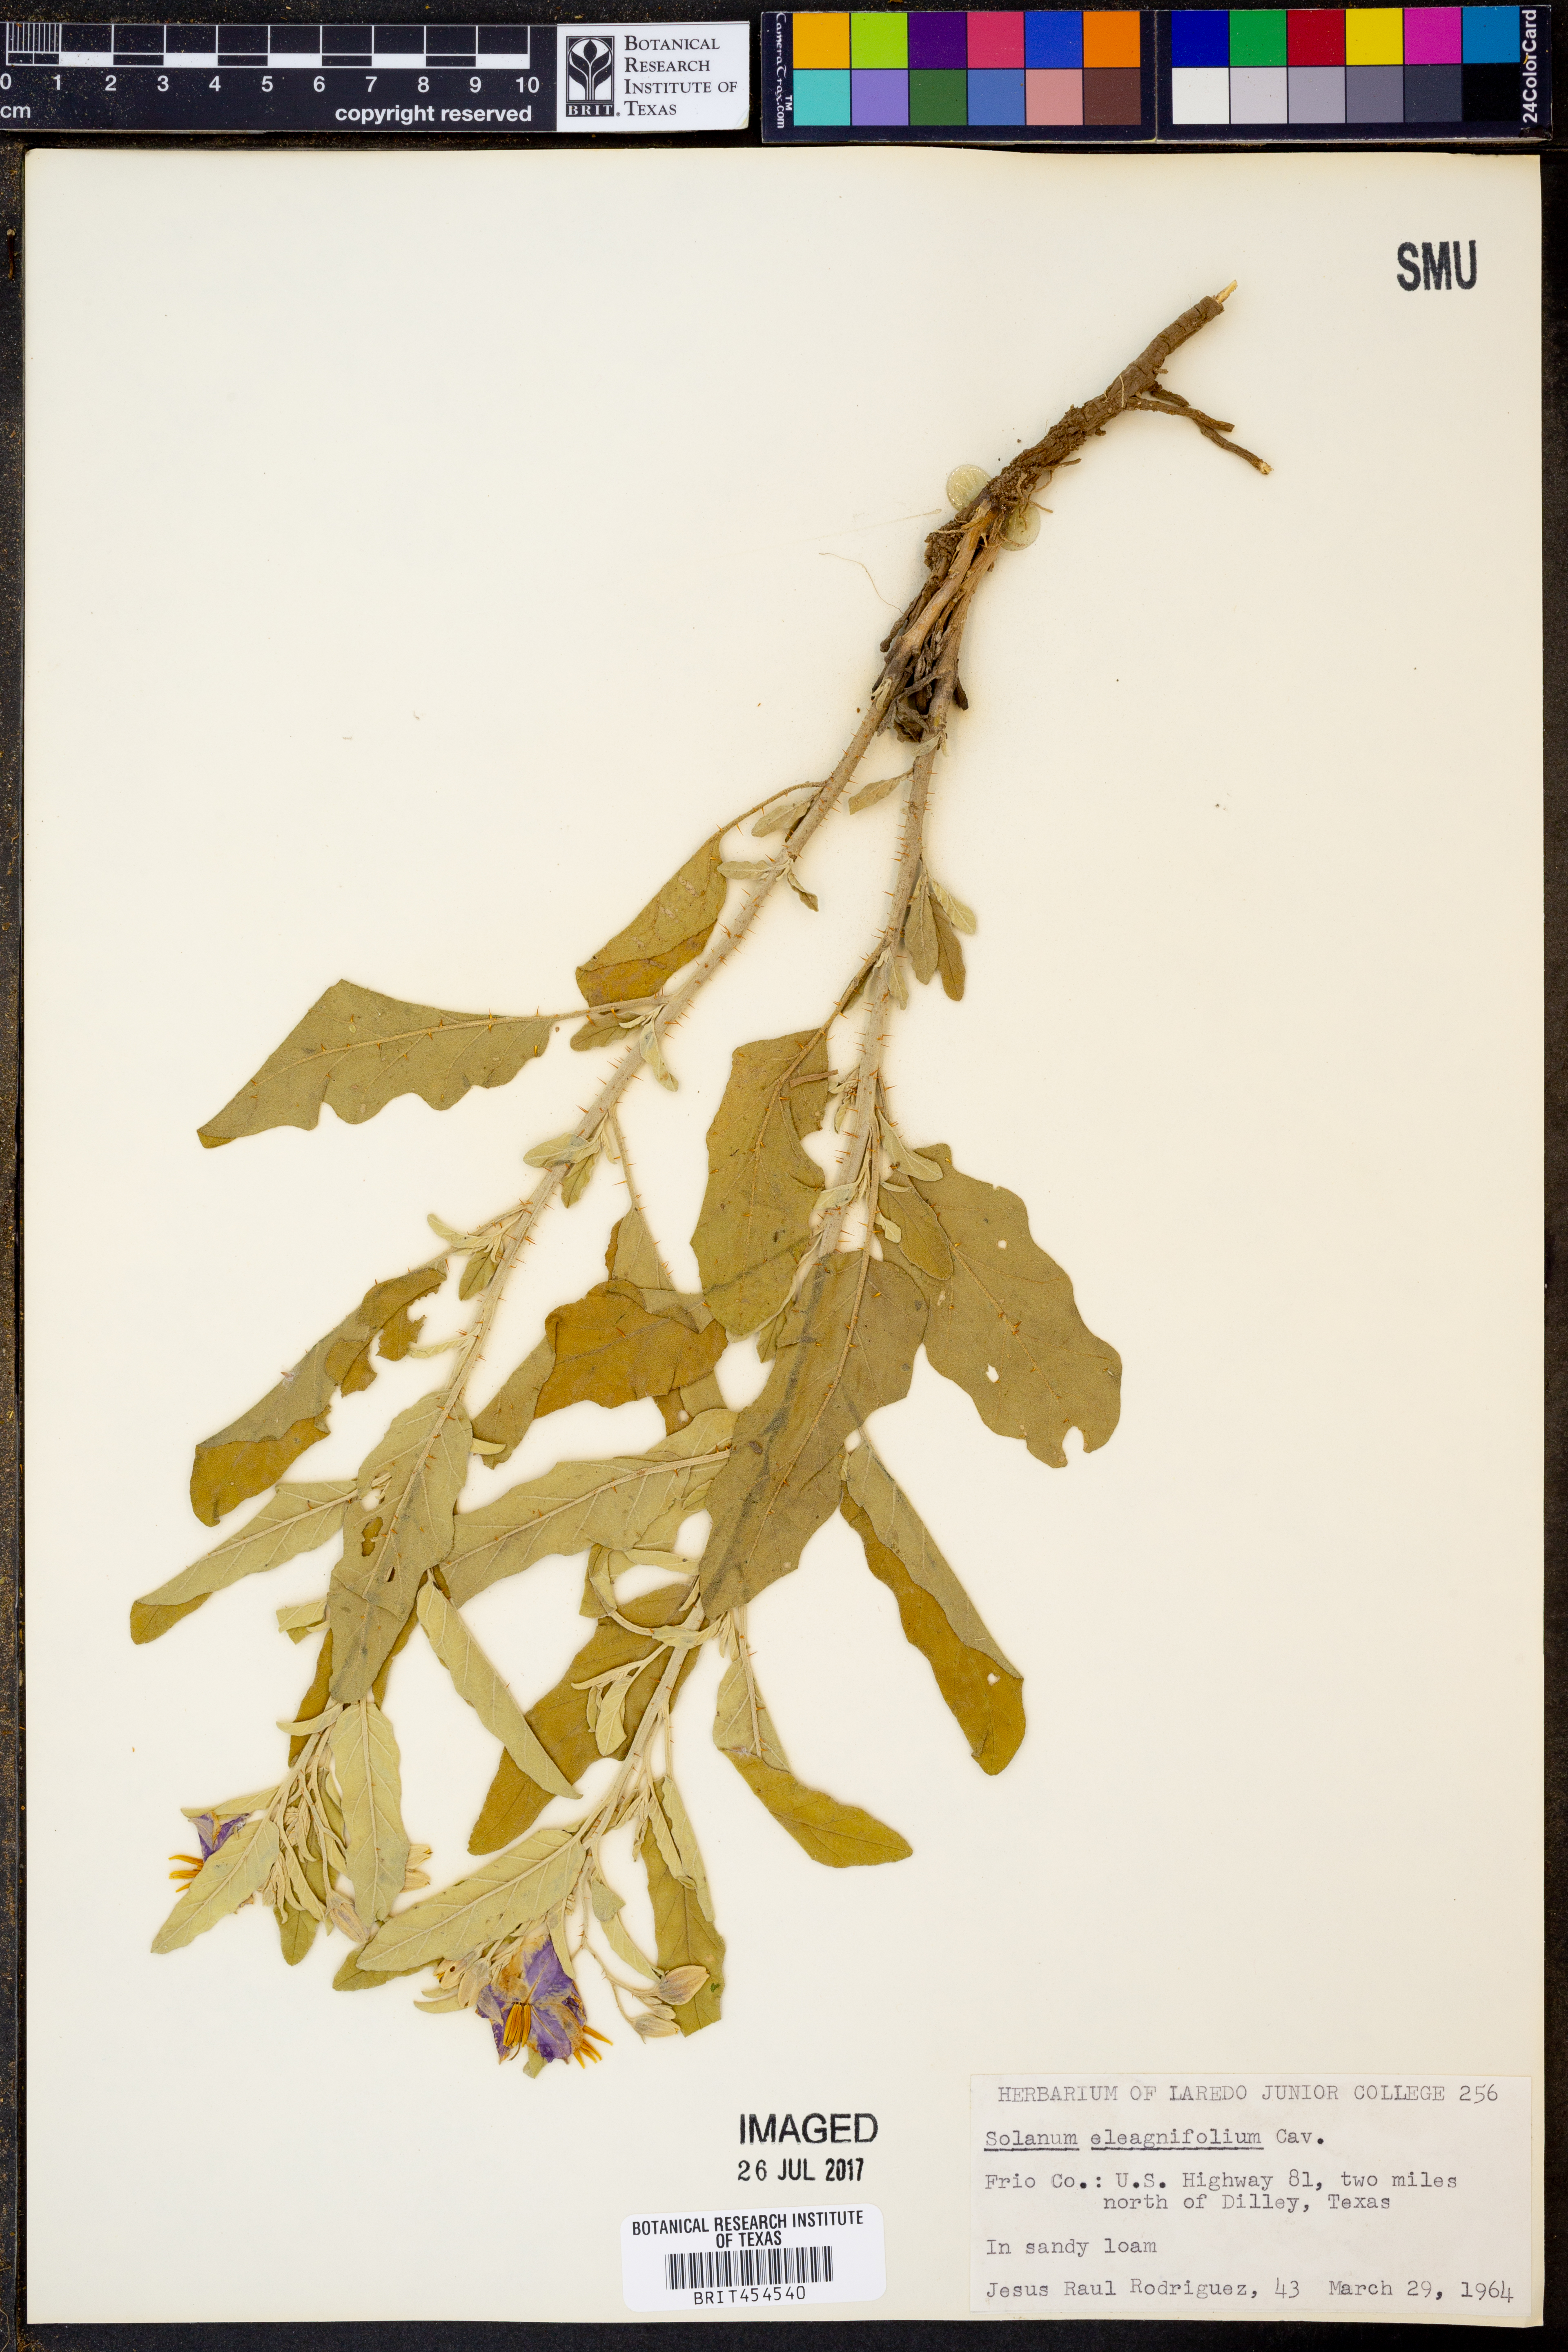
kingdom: Plantae
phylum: Tracheophyta
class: Magnoliopsida
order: Solanales
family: Solanaceae
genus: Solanum
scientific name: Solanum elaeagnifolium
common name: Silverleaf nightshade
